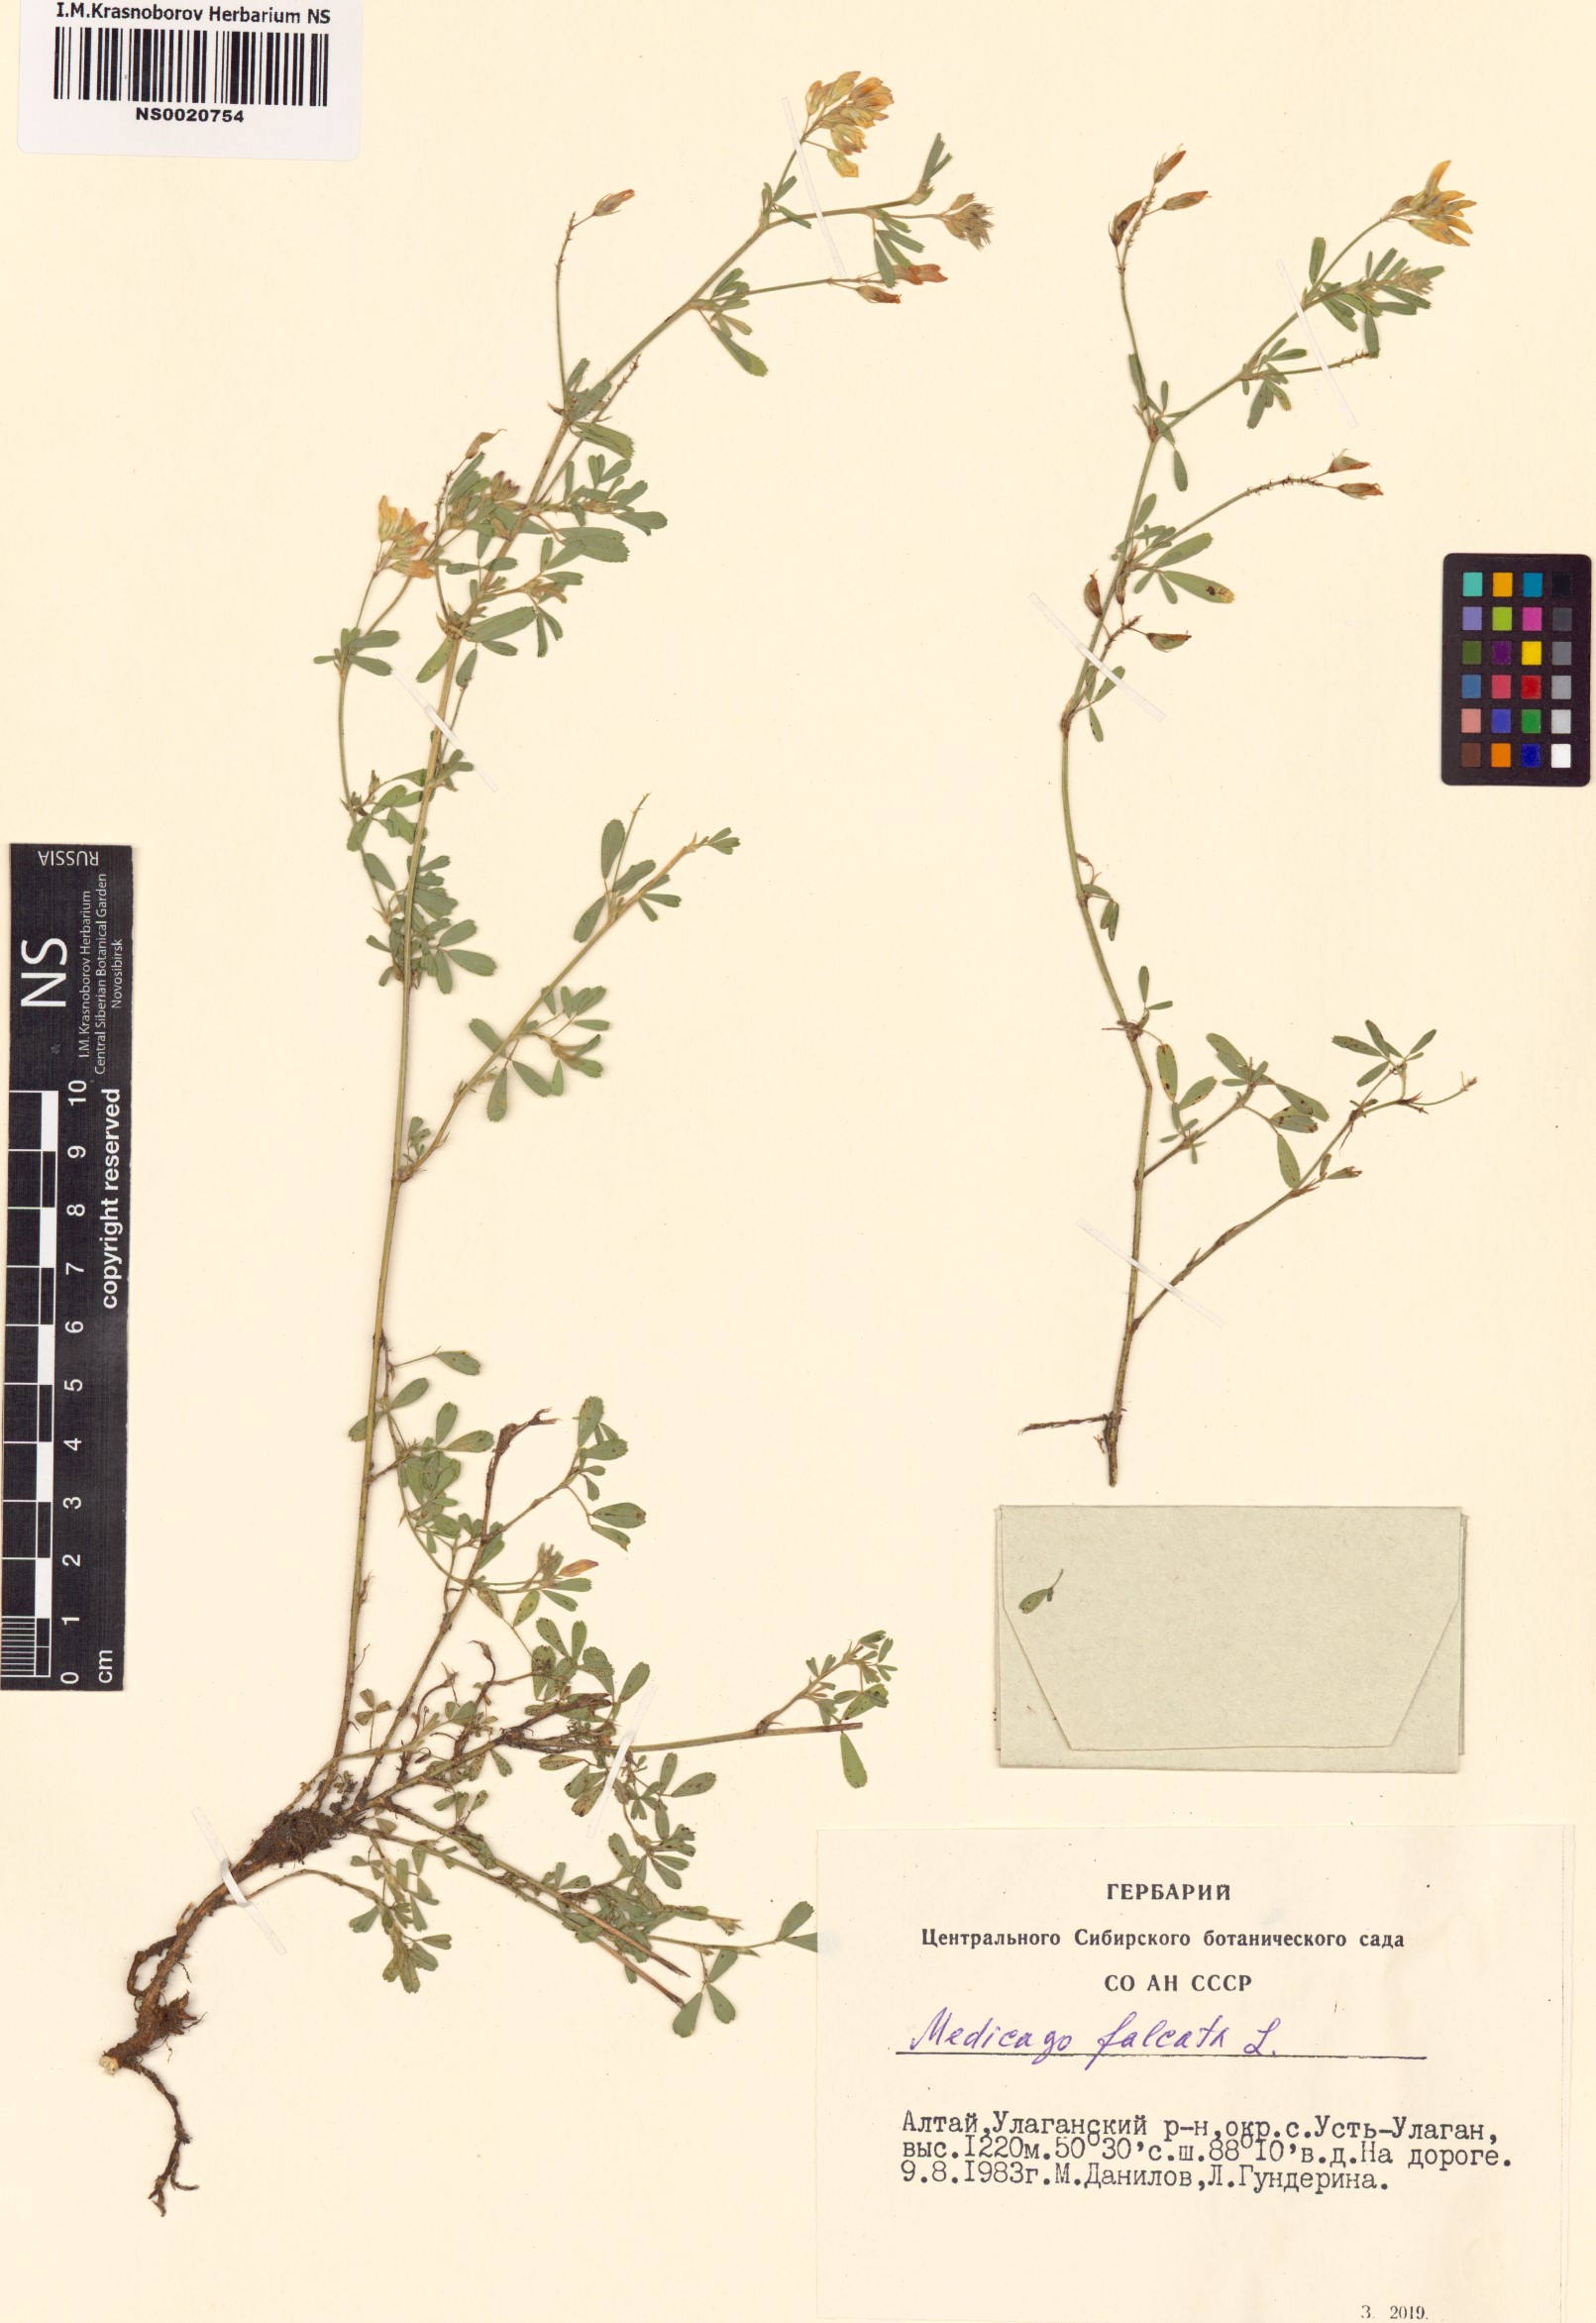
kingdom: Plantae
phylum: Tracheophyta
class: Magnoliopsida
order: Fabales
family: Fabaceae
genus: Medicago
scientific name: Medicago falcata
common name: Sickle medick
